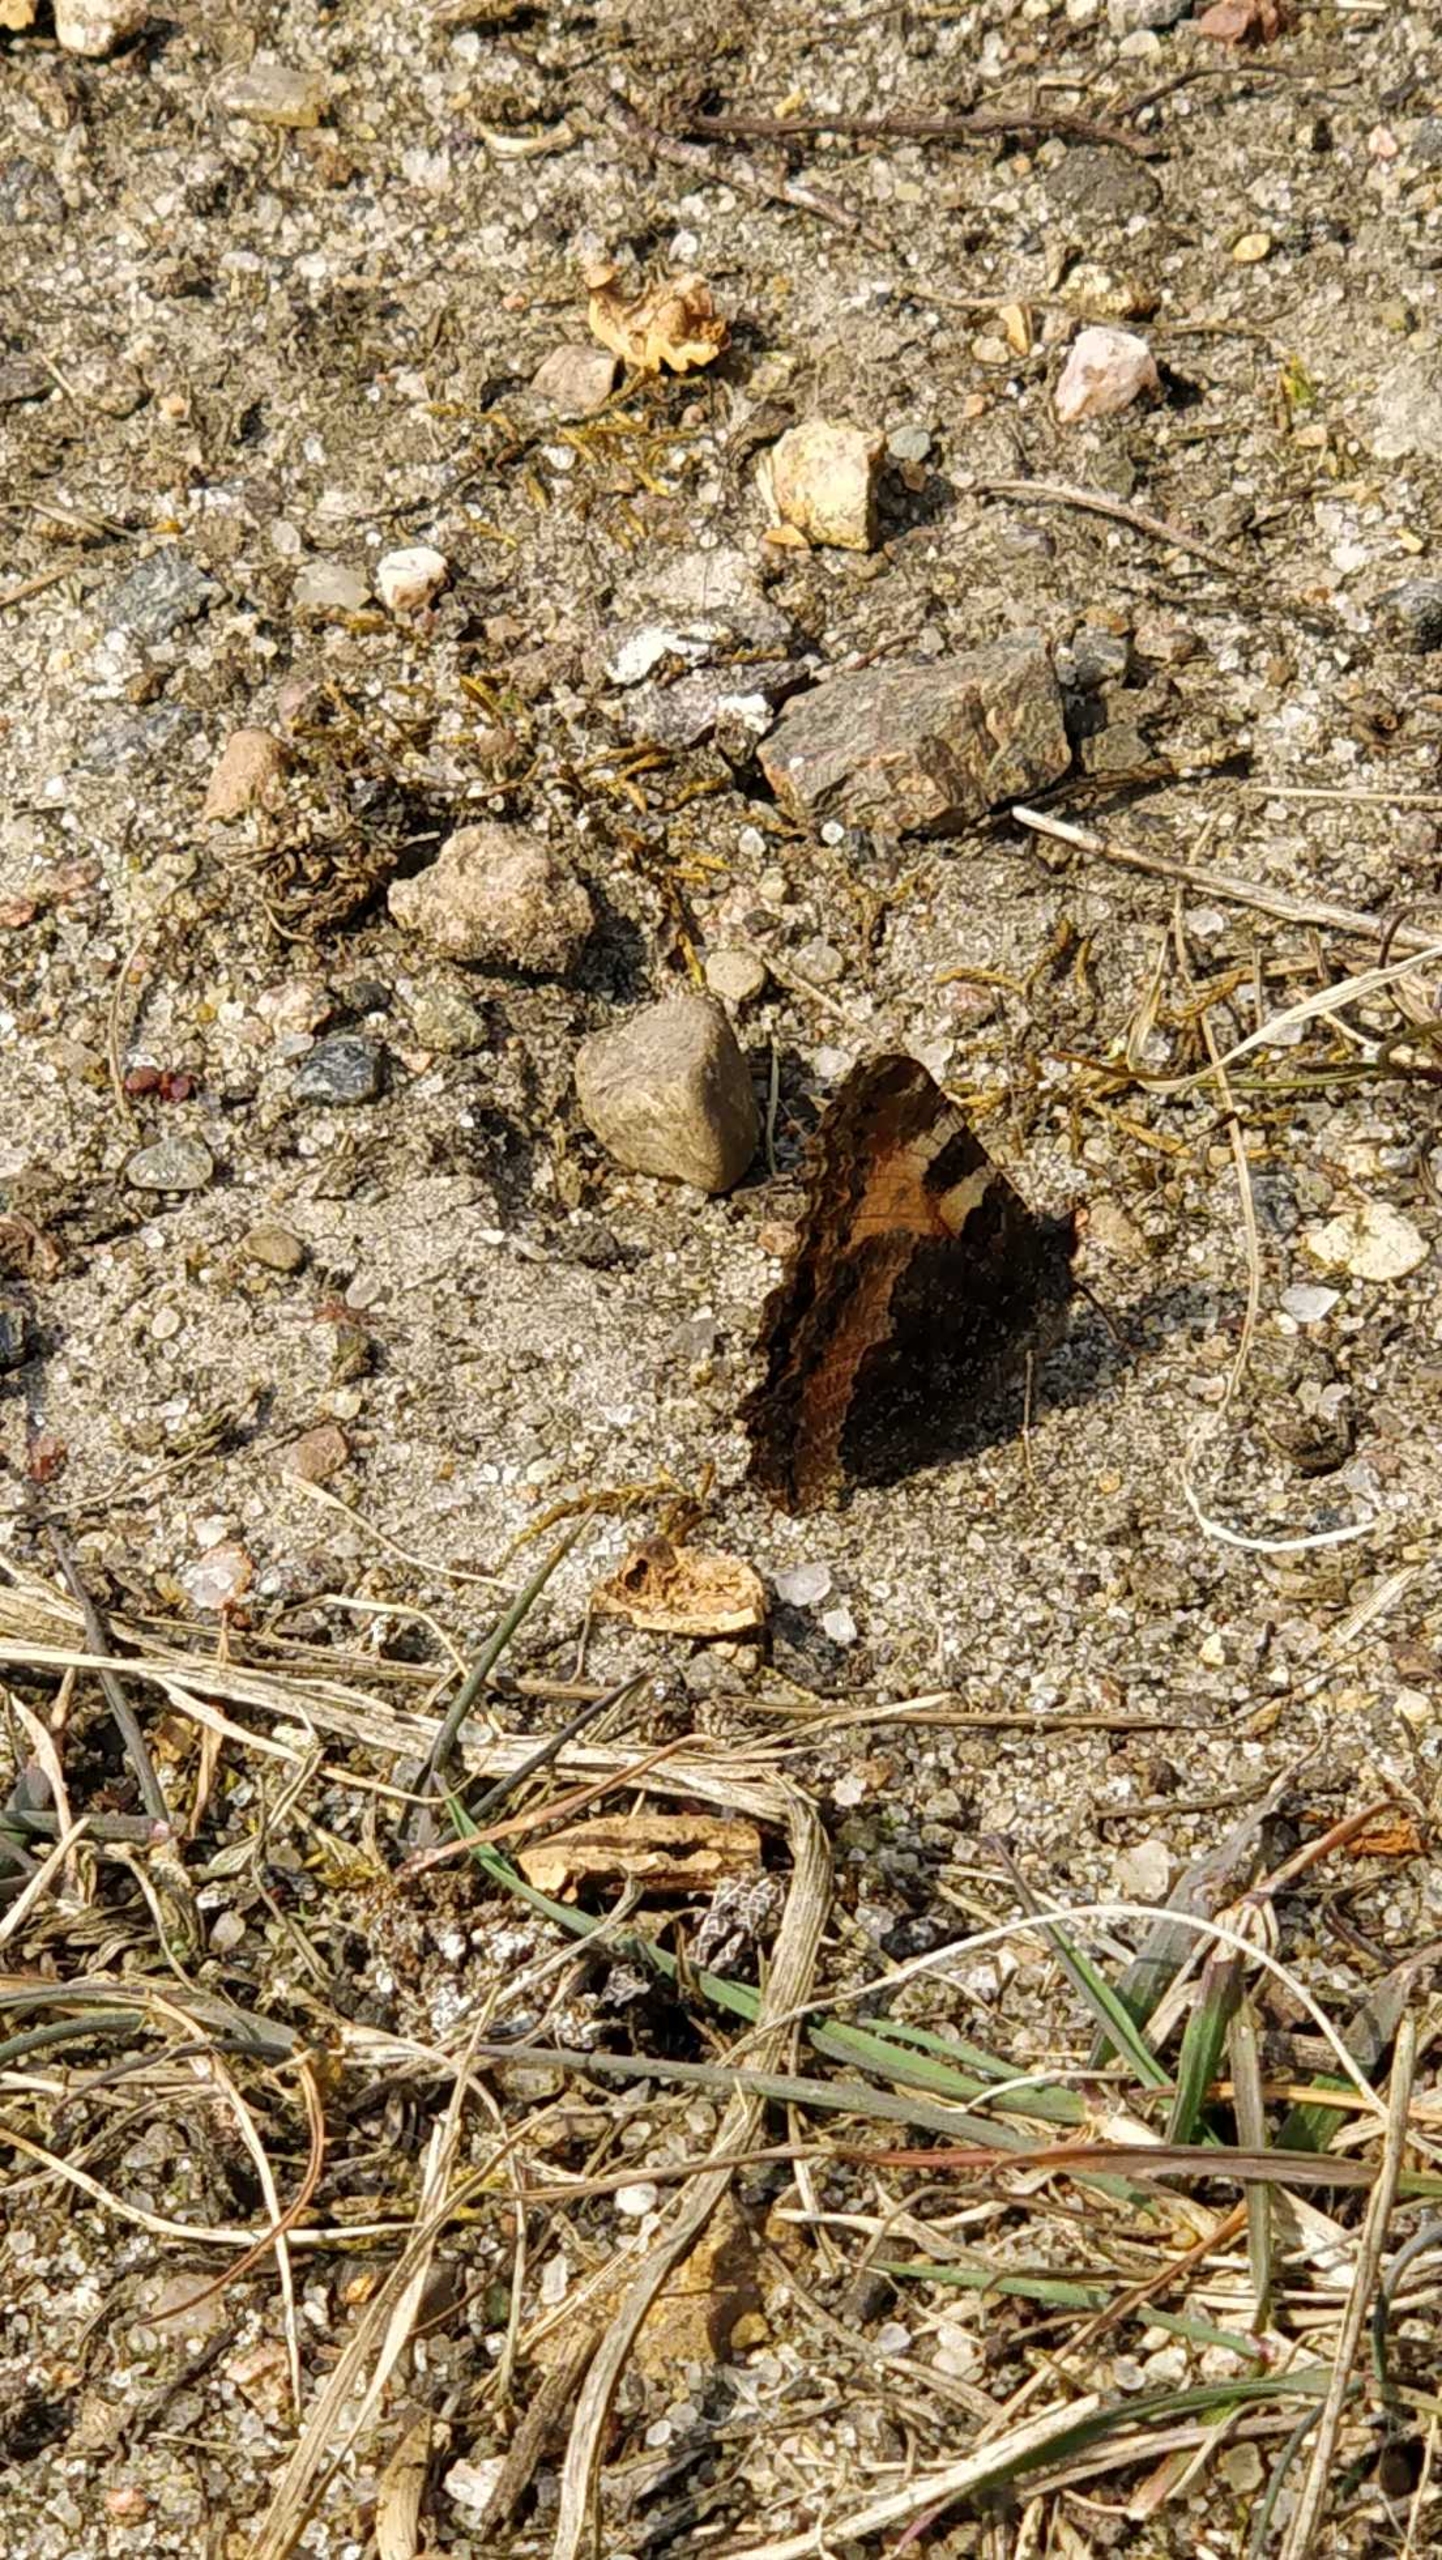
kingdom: Animalia
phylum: Arthropoda
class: Insecta
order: Lepidoptera
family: Nymphalidae
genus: Aglais
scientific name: Aglais urticae
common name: Nældens takvinge
